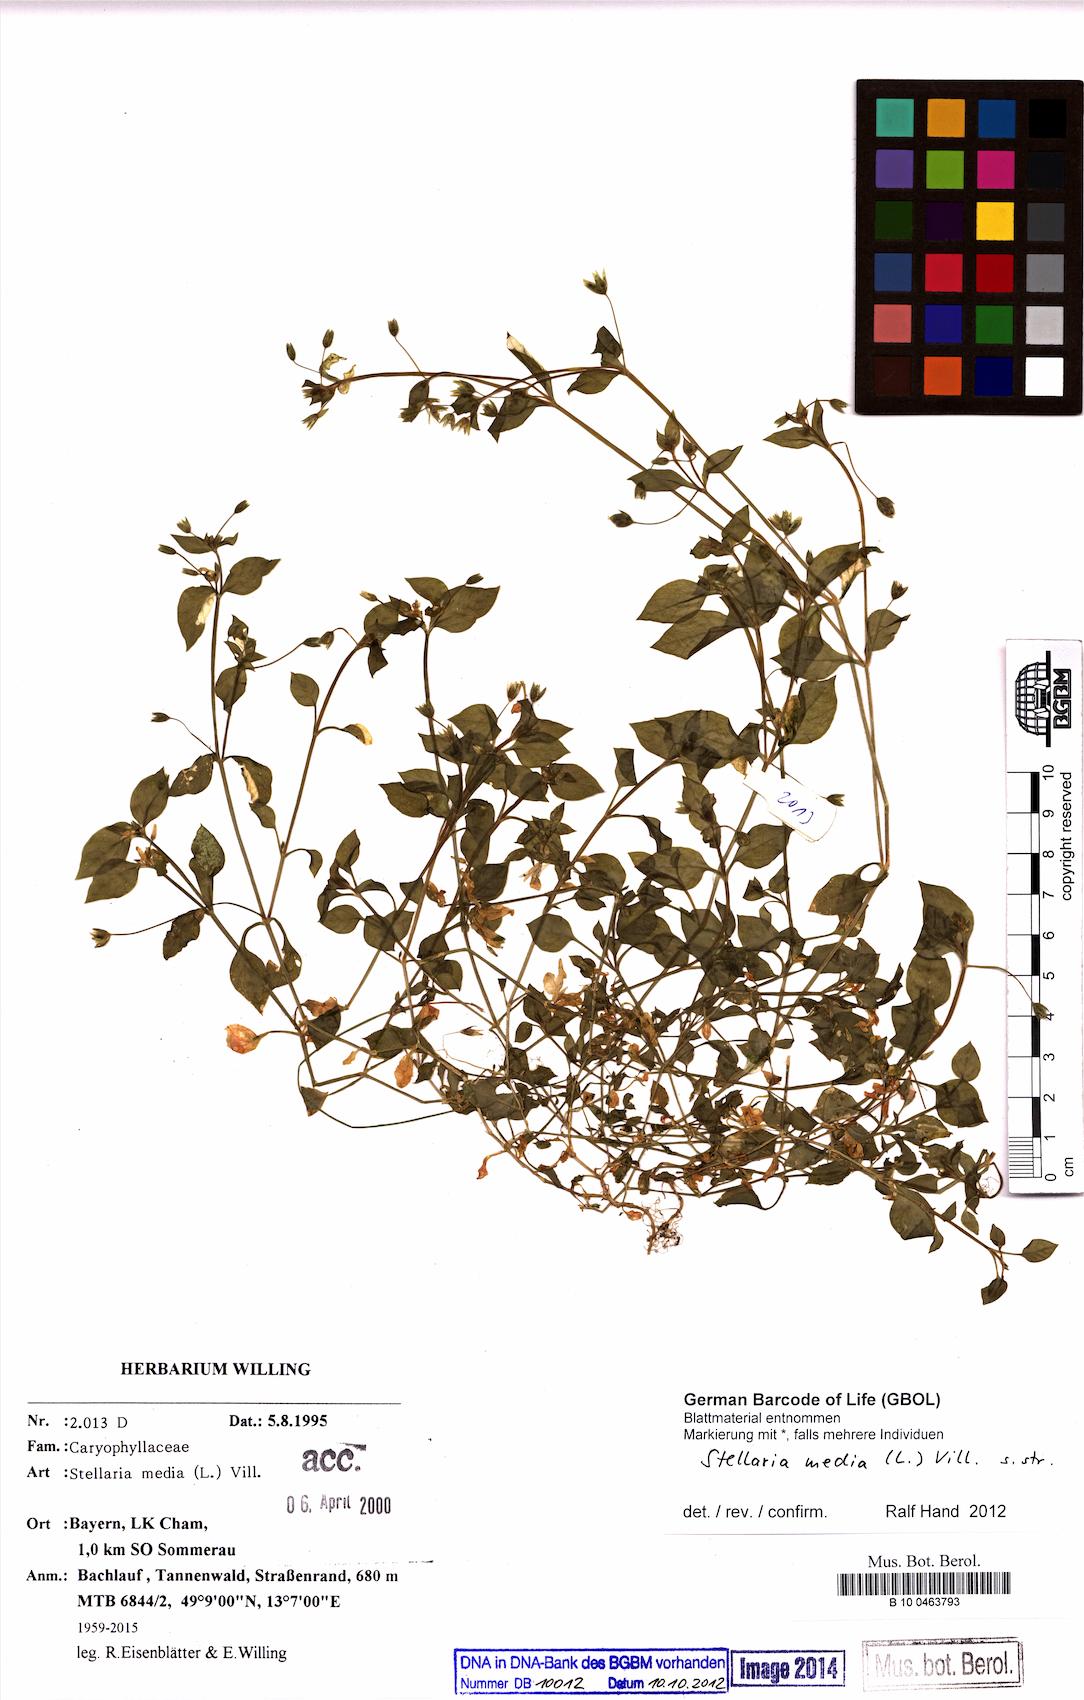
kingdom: Plantae
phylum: Tracheophyta
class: Magnoliopsida
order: Caryophyllales
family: Caryophyllaceae
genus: Stellaria
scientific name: Stellaria media
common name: Common chickweed
